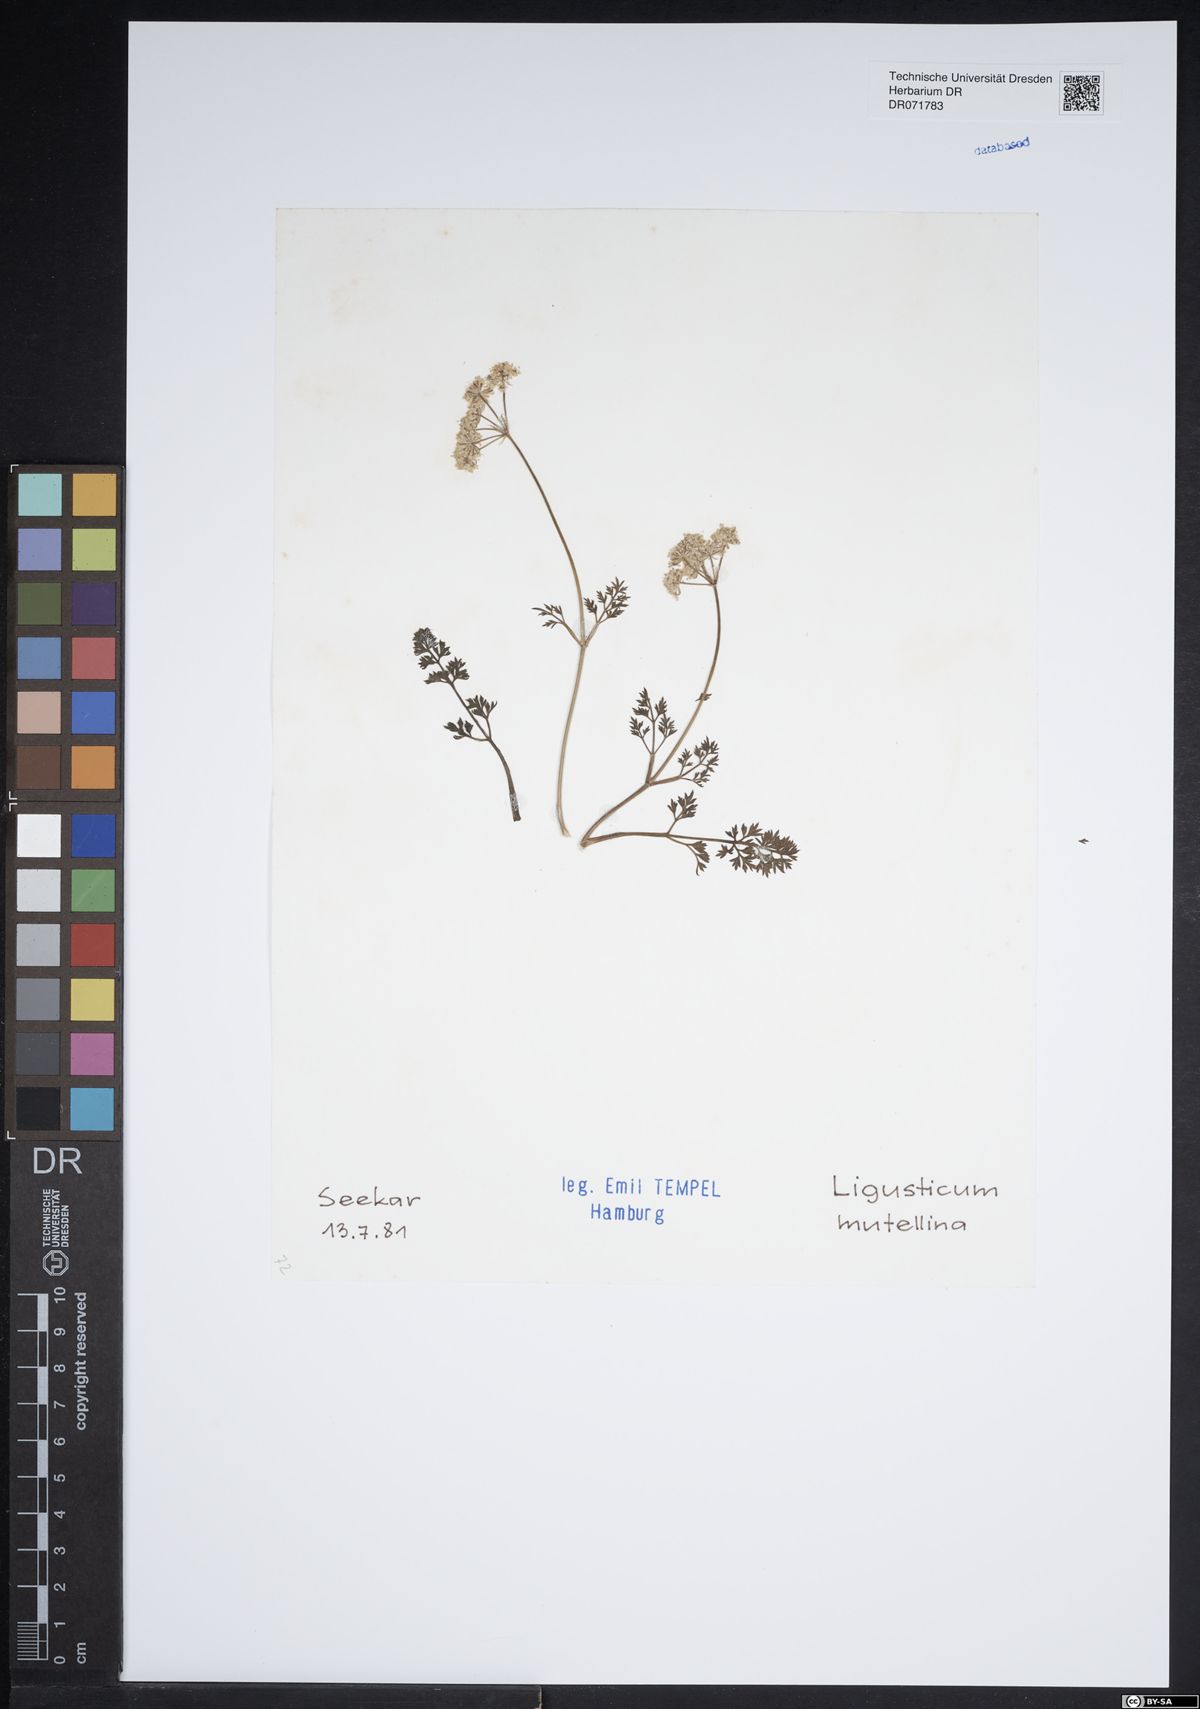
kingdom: Plantae
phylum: Tracheophyta
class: Magnoliopsida
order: Ericales
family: Ericaceae
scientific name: Ericaceae
